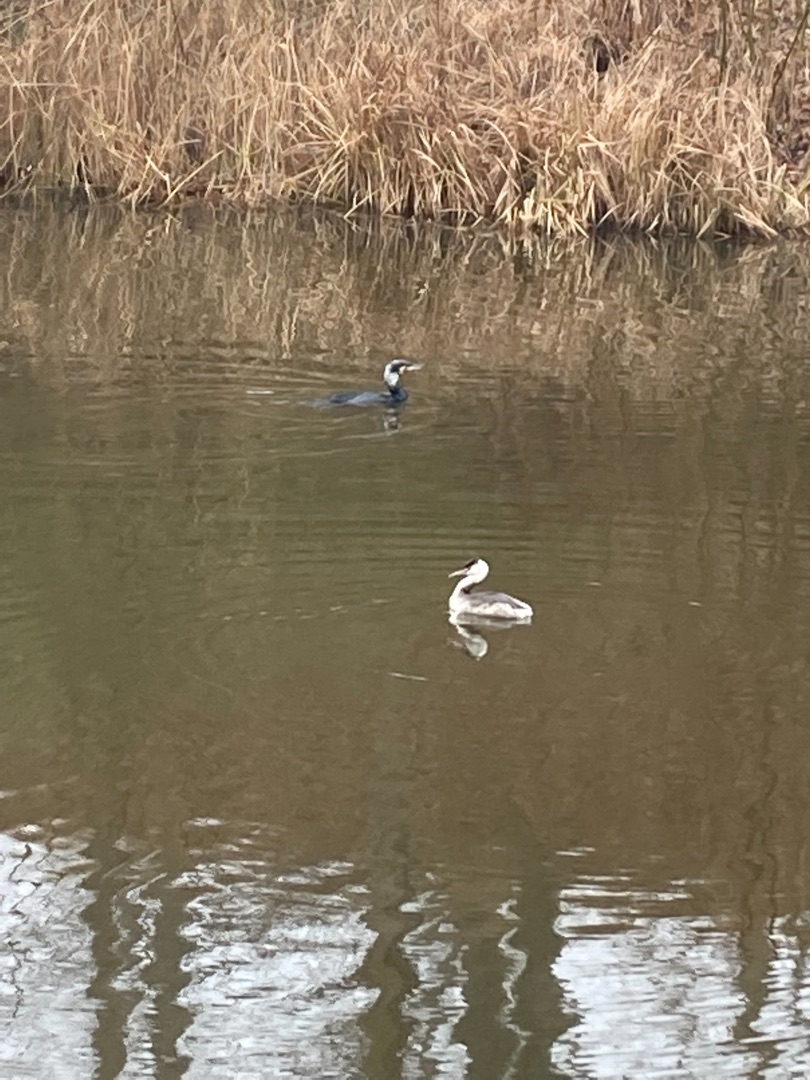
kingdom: Animalia
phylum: Chordata
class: Aves
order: Suliformes
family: Phalacrocoracidae
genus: Phalacrocorax
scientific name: Phalacrocorax carbo
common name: Skarv
